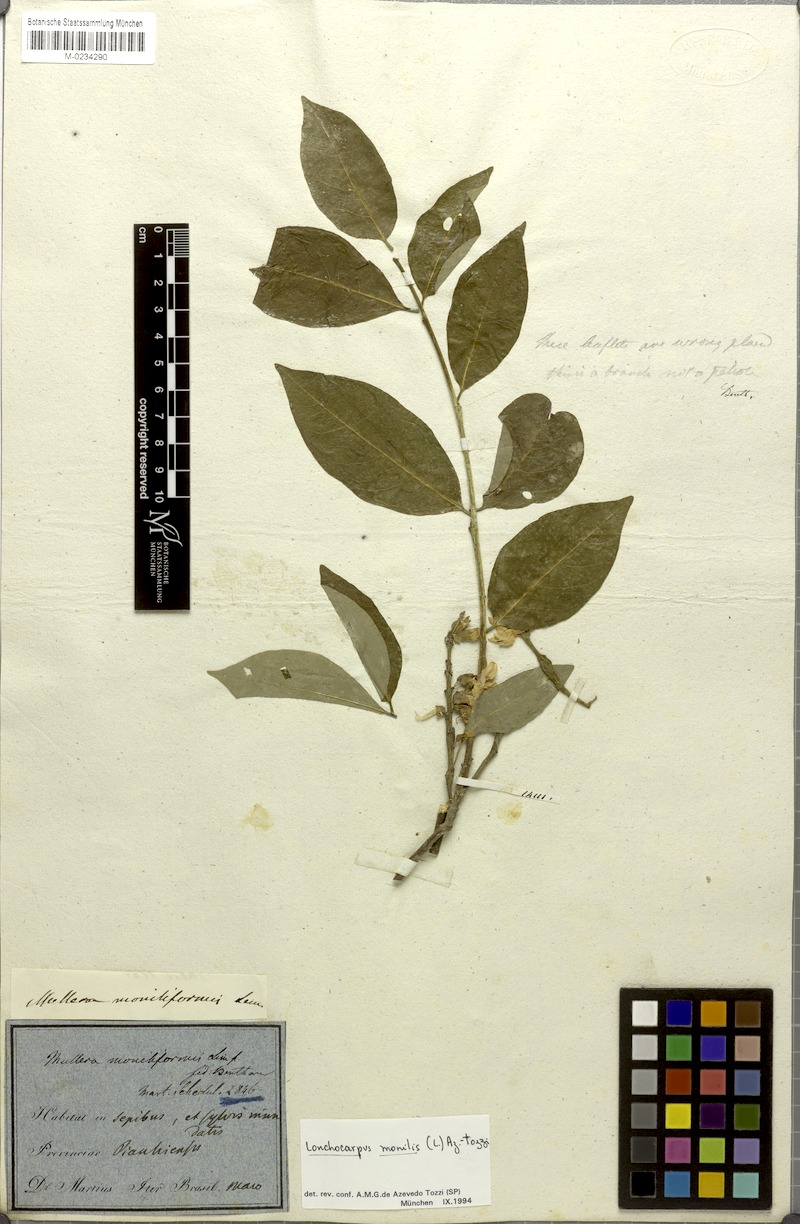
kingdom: Plantae
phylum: Tracheophyta
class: Magnoliopsida
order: Fabales
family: Fabaceae
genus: Muellera
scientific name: Muellera monilis
